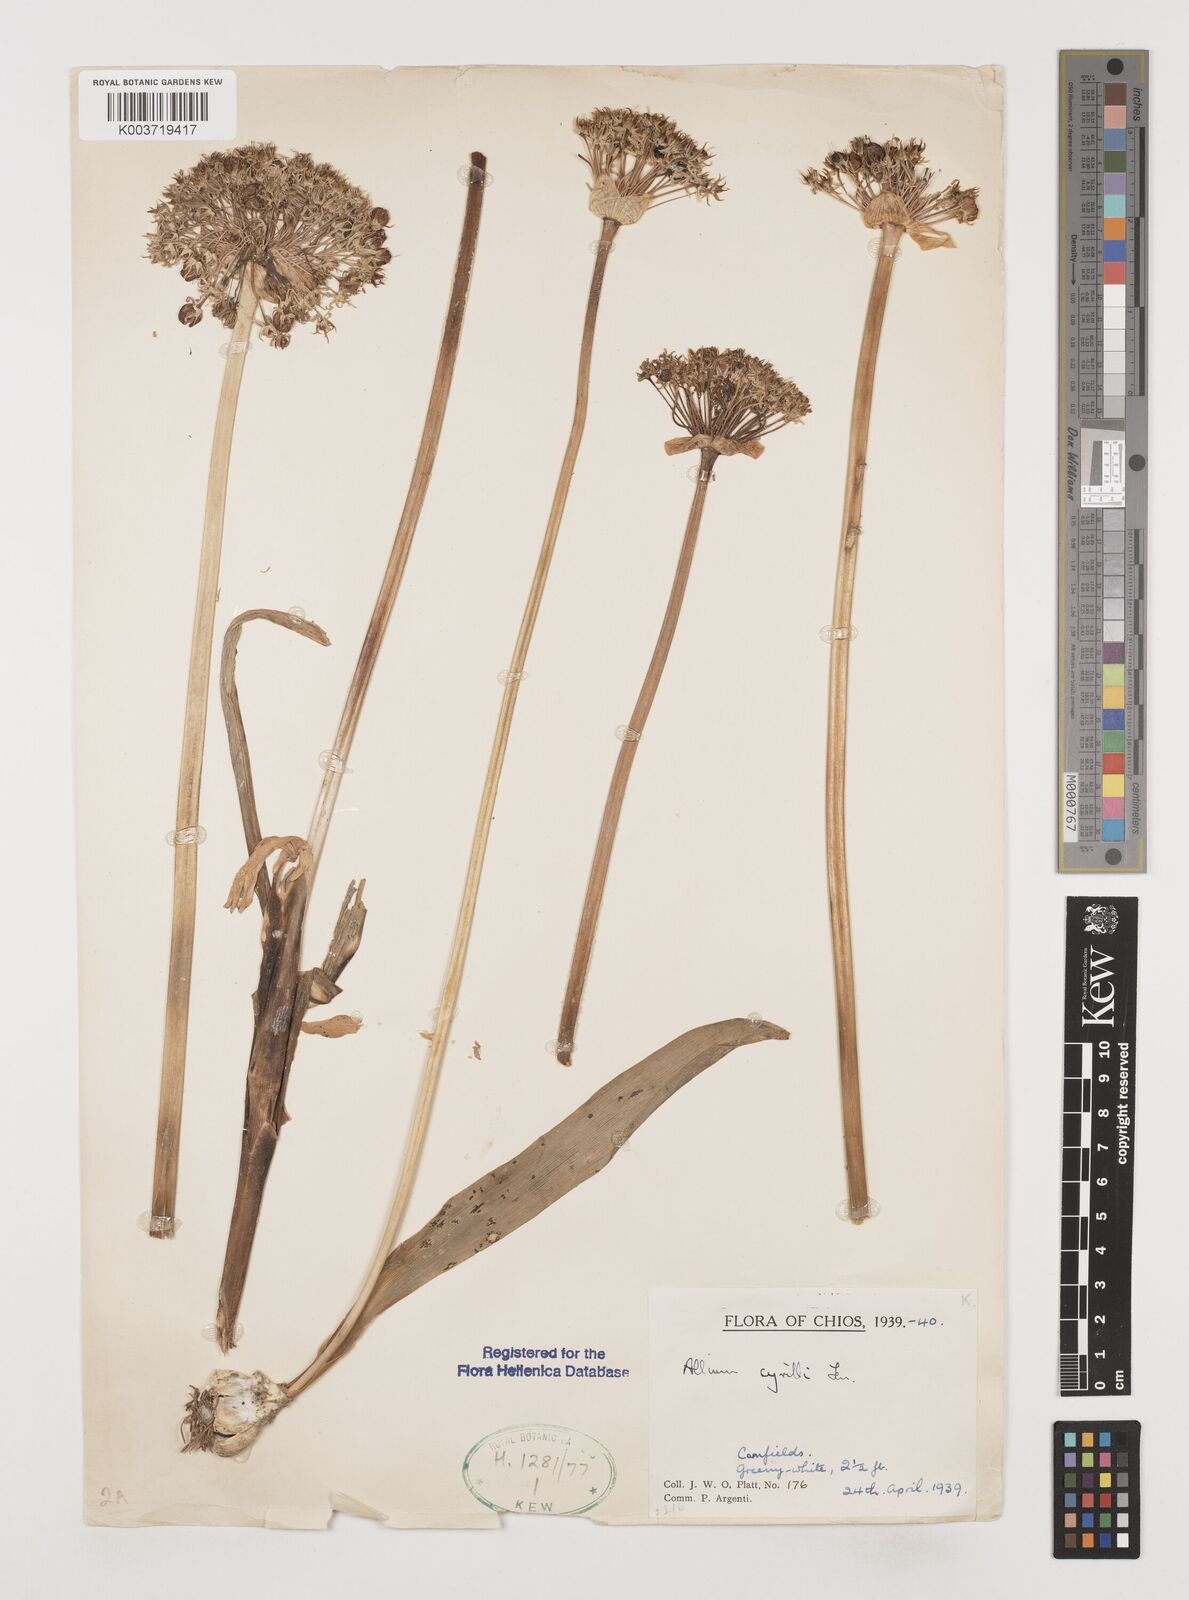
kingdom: Plantae
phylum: Tracheophyta
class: Liliopsida
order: Asparagales
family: Amaryllidaceae
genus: Allium
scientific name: Allium cyrilli
